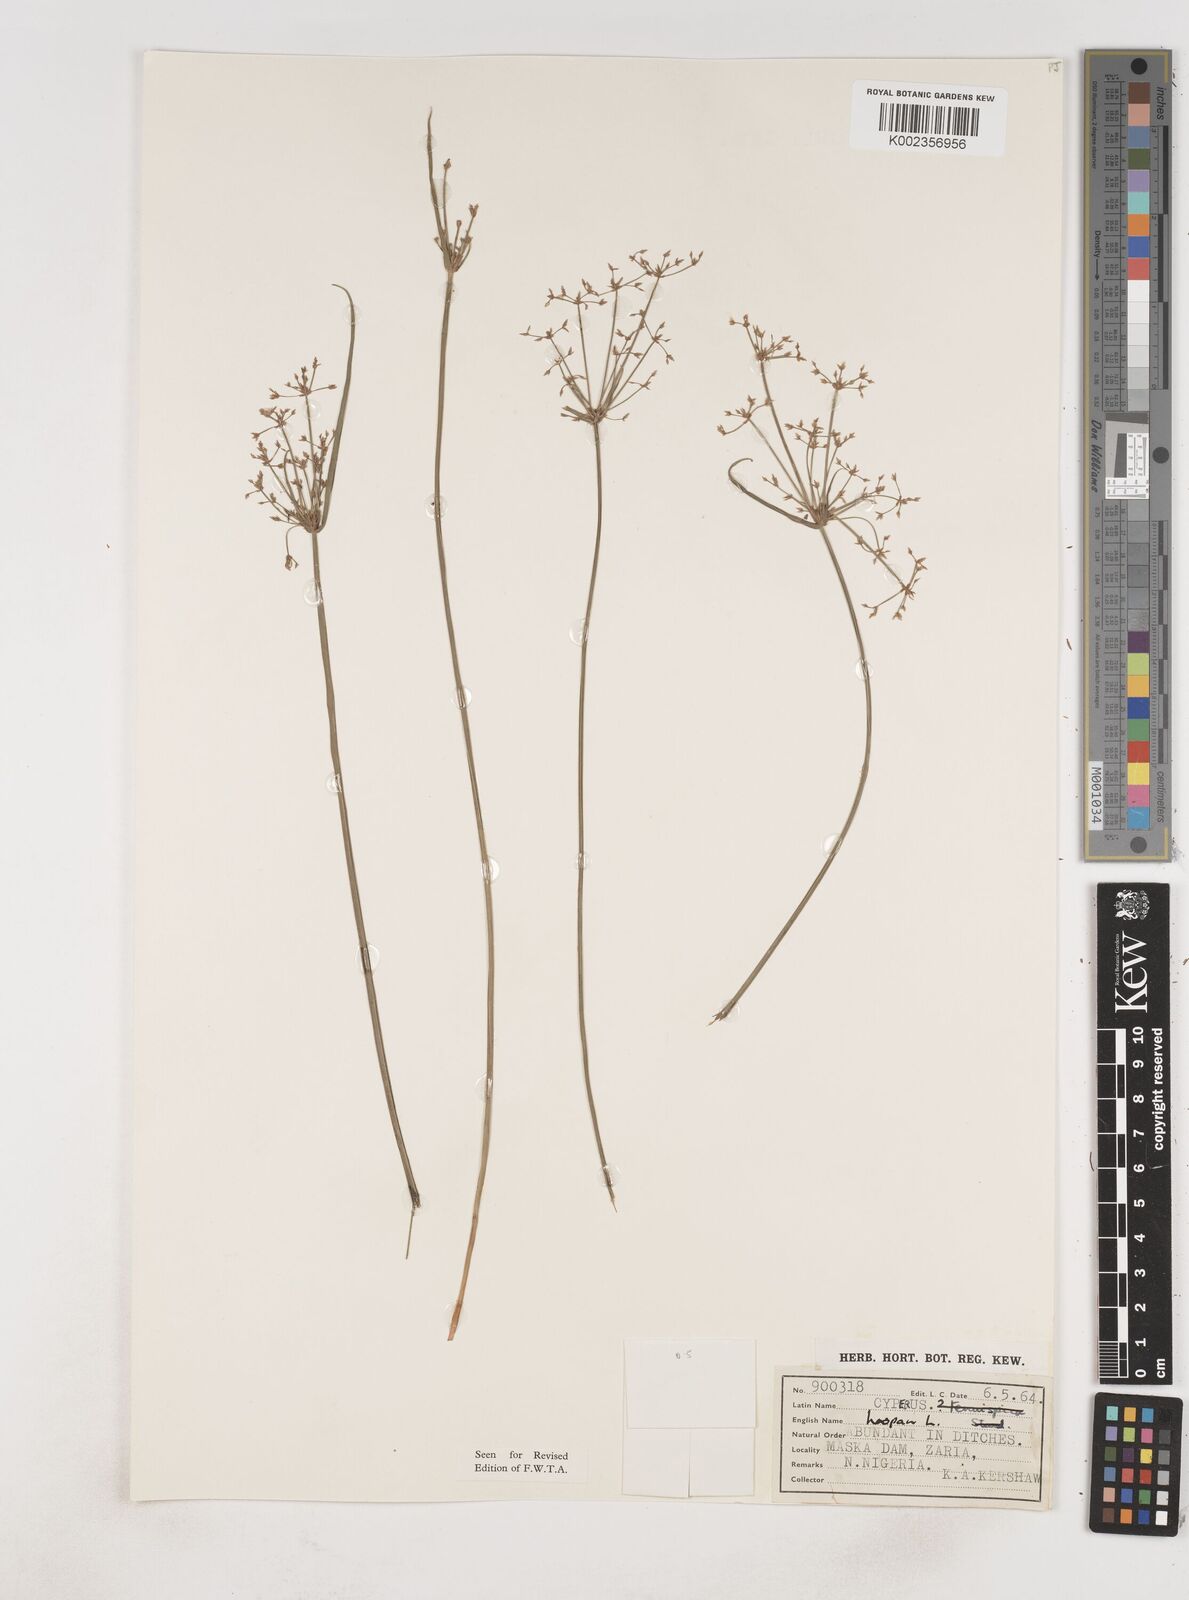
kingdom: Plantae
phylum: Tracheophyta
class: Liliopsida
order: Poales
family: Cyperaceae
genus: Cyperus
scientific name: Cyperus haspan
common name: Haspan flatsedge
